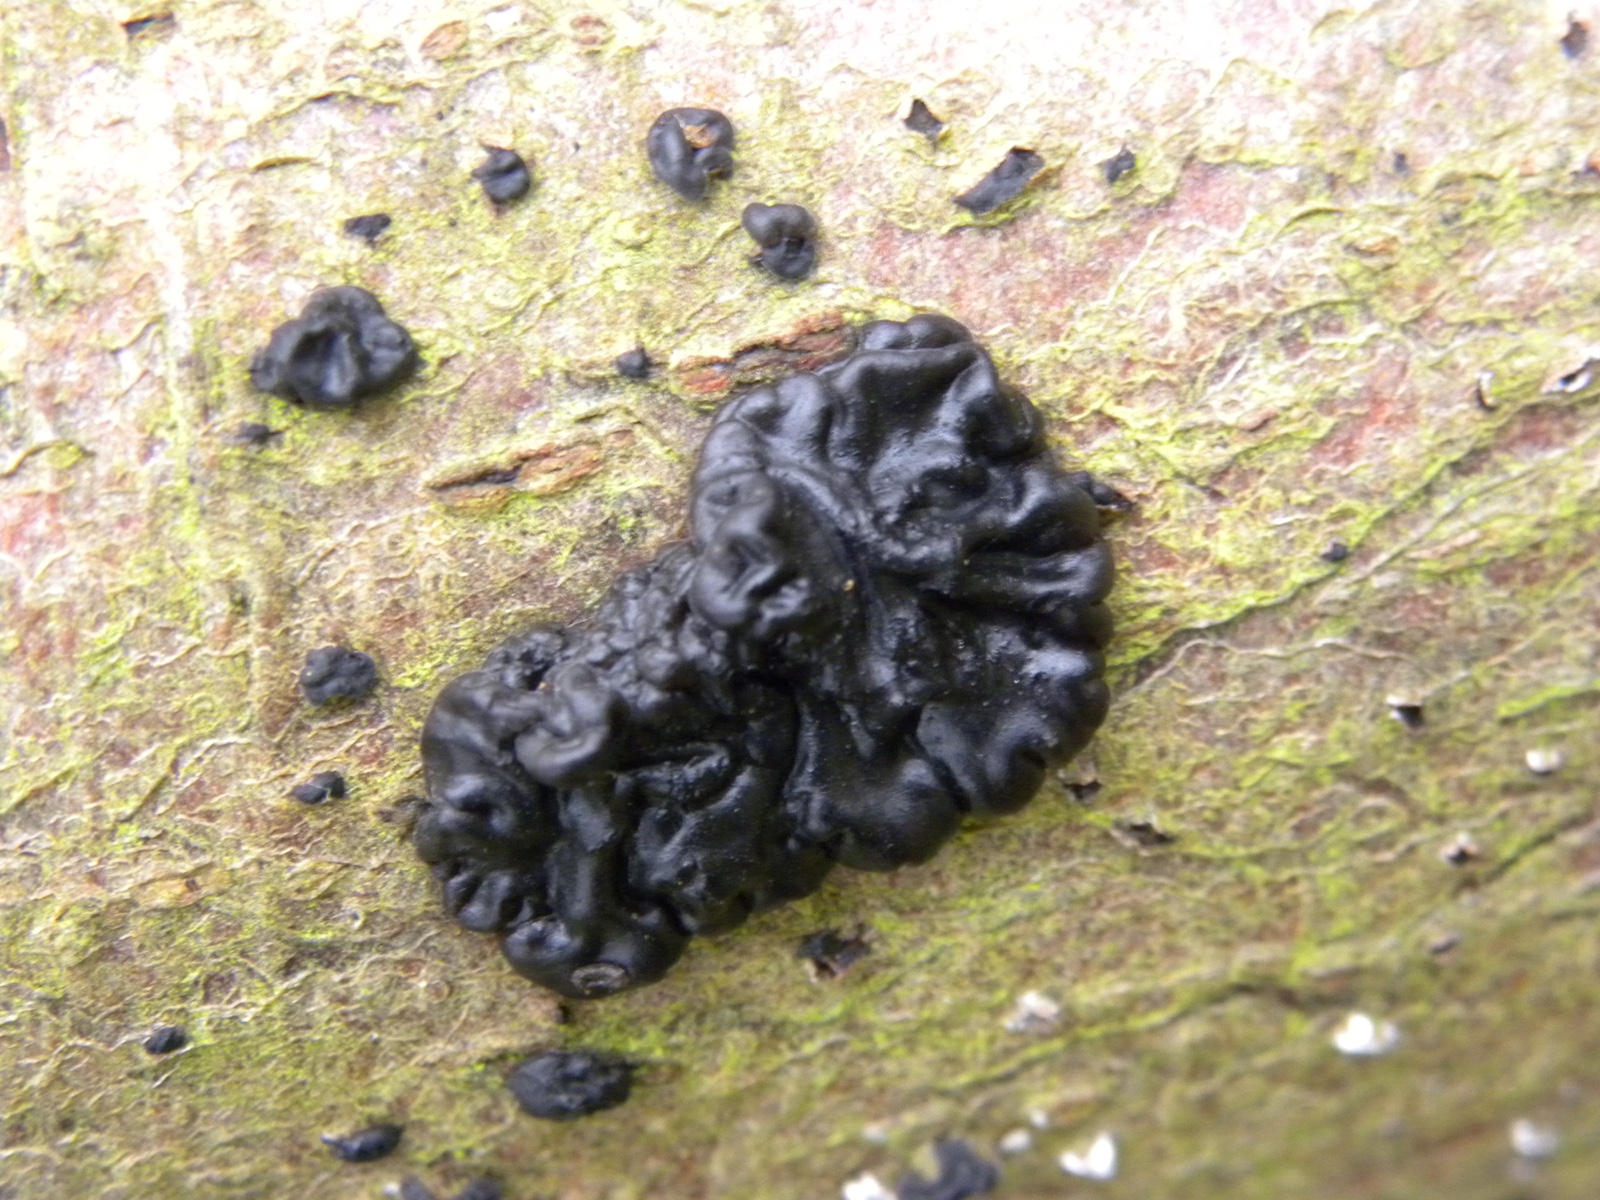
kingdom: Fungi
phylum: Basidiomycota
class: Agaricomycetes
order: Auriculariales
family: Auriculariaceae
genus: Exidia
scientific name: Exidia nigricans
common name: almindelig bævretop
